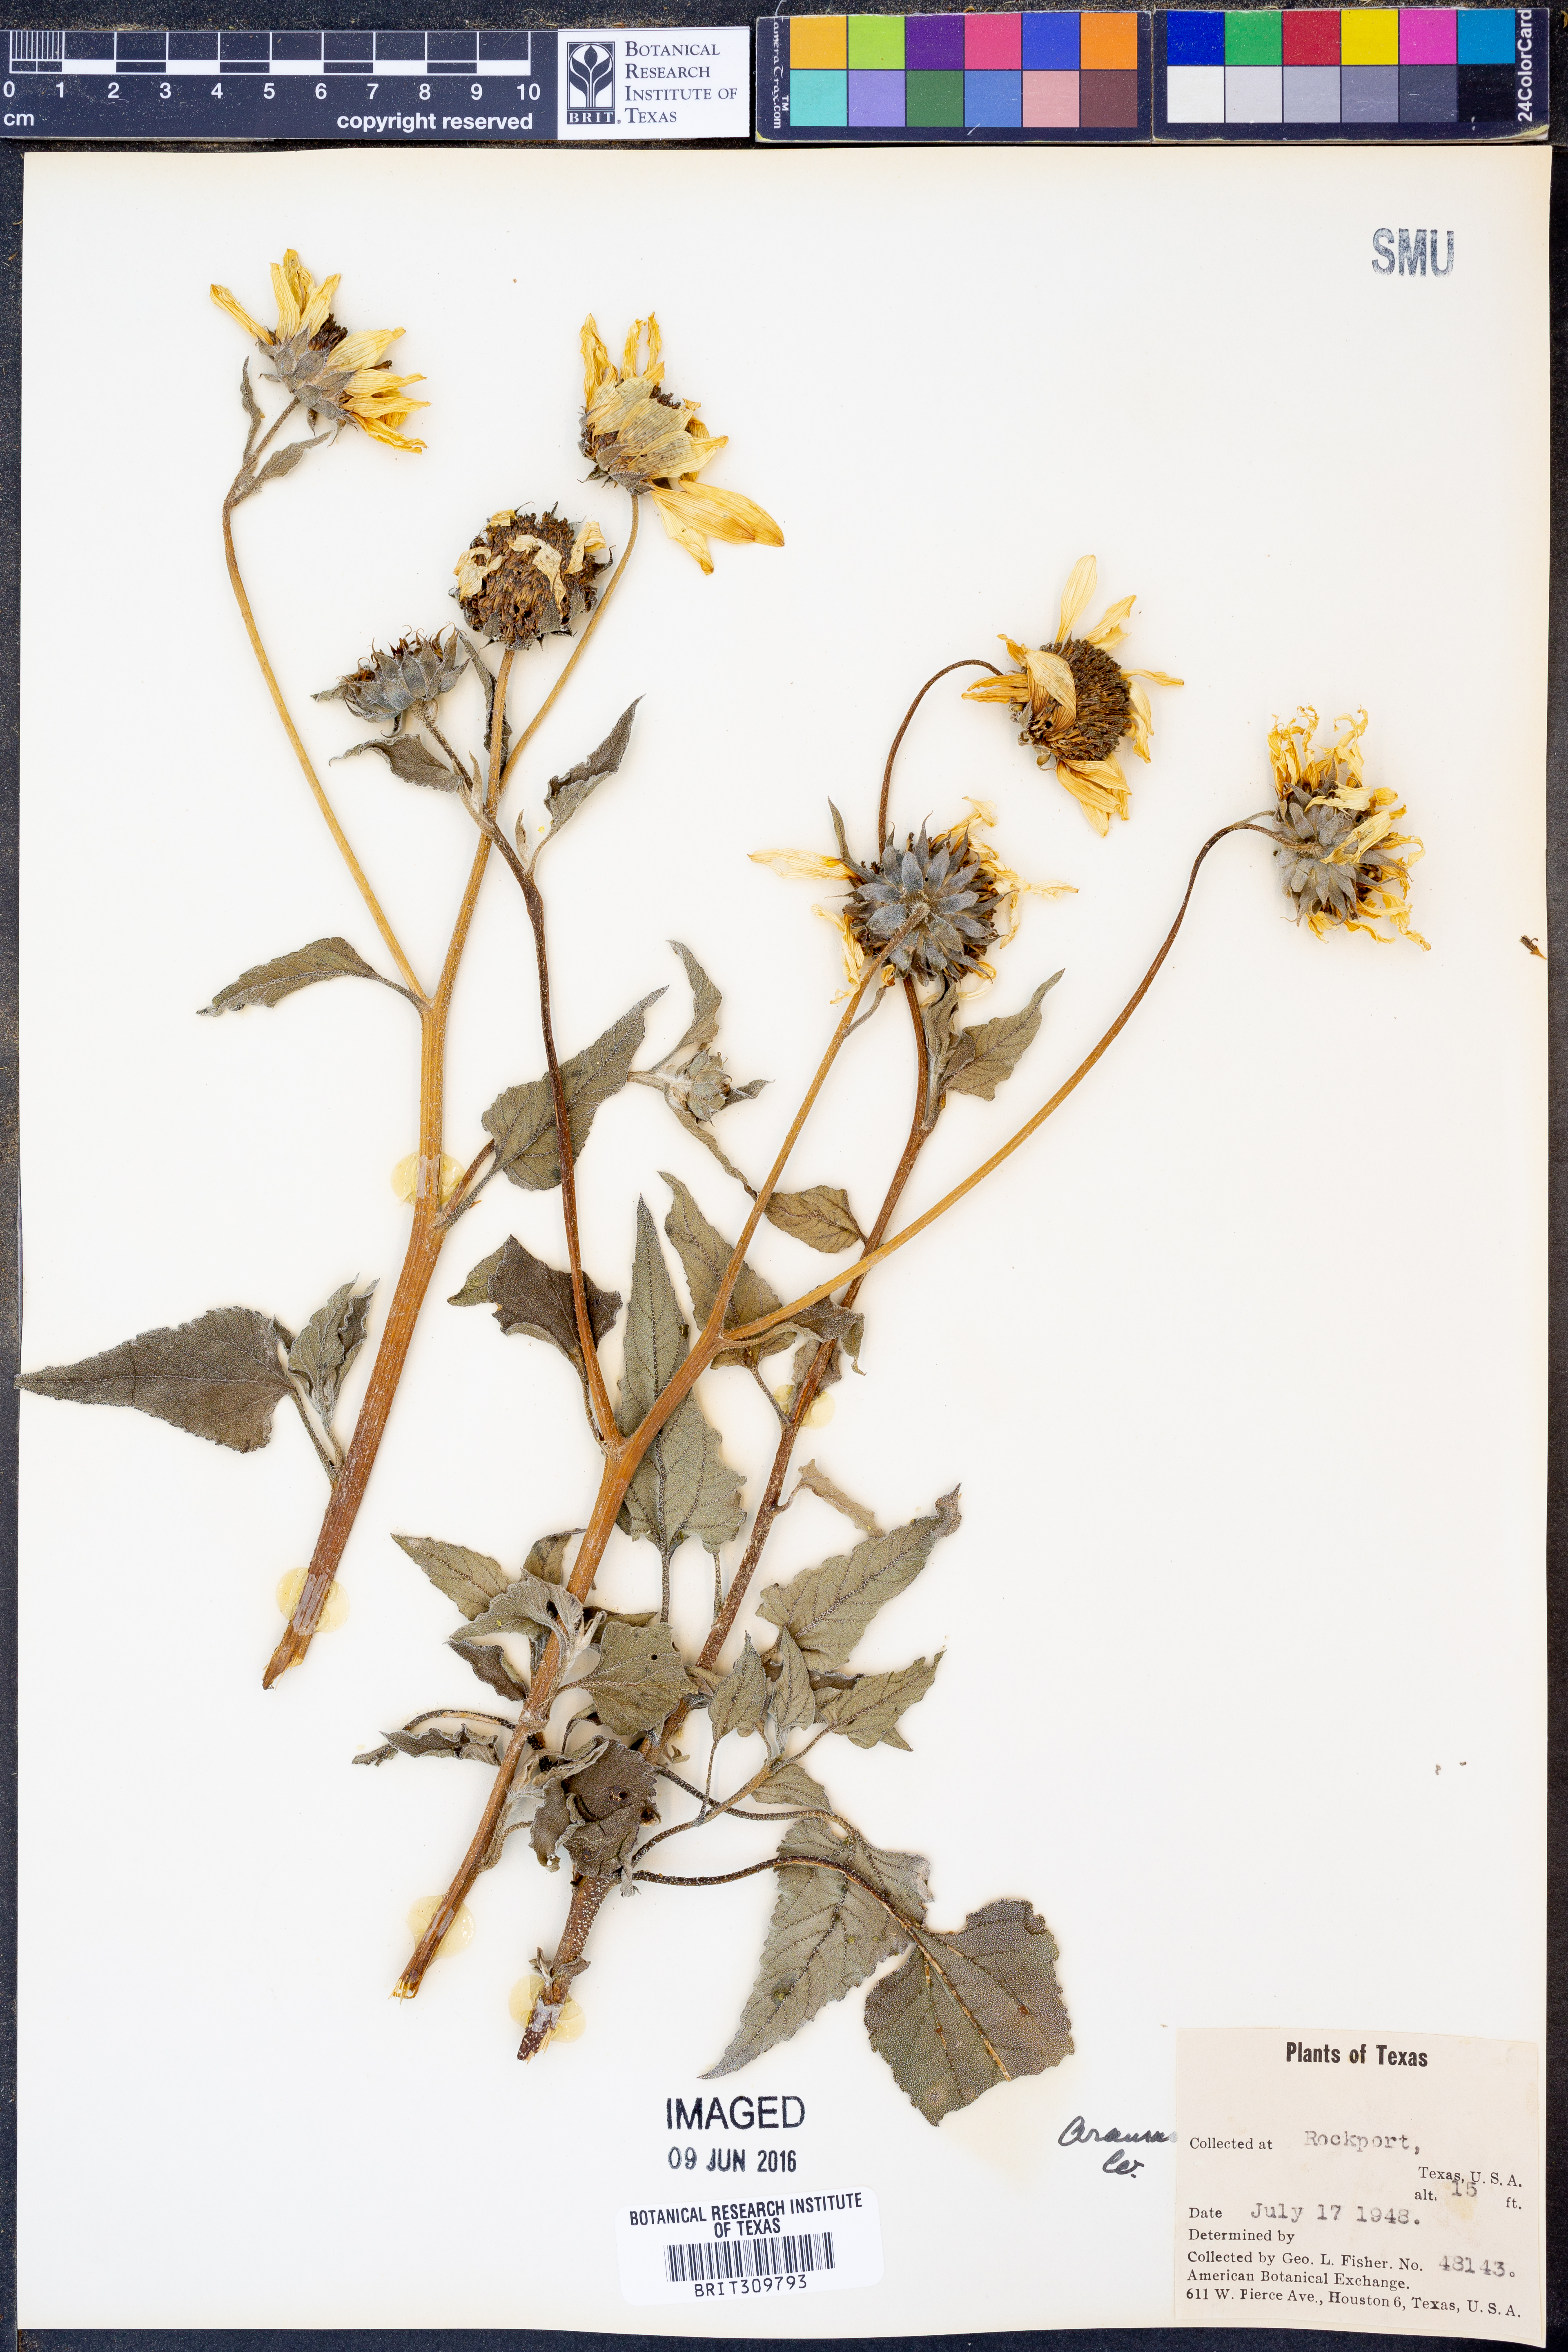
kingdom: Plantae
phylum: Tracheophyta
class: Magnoliopsida
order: Asterales
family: Asteraceae
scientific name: Asteraceae
